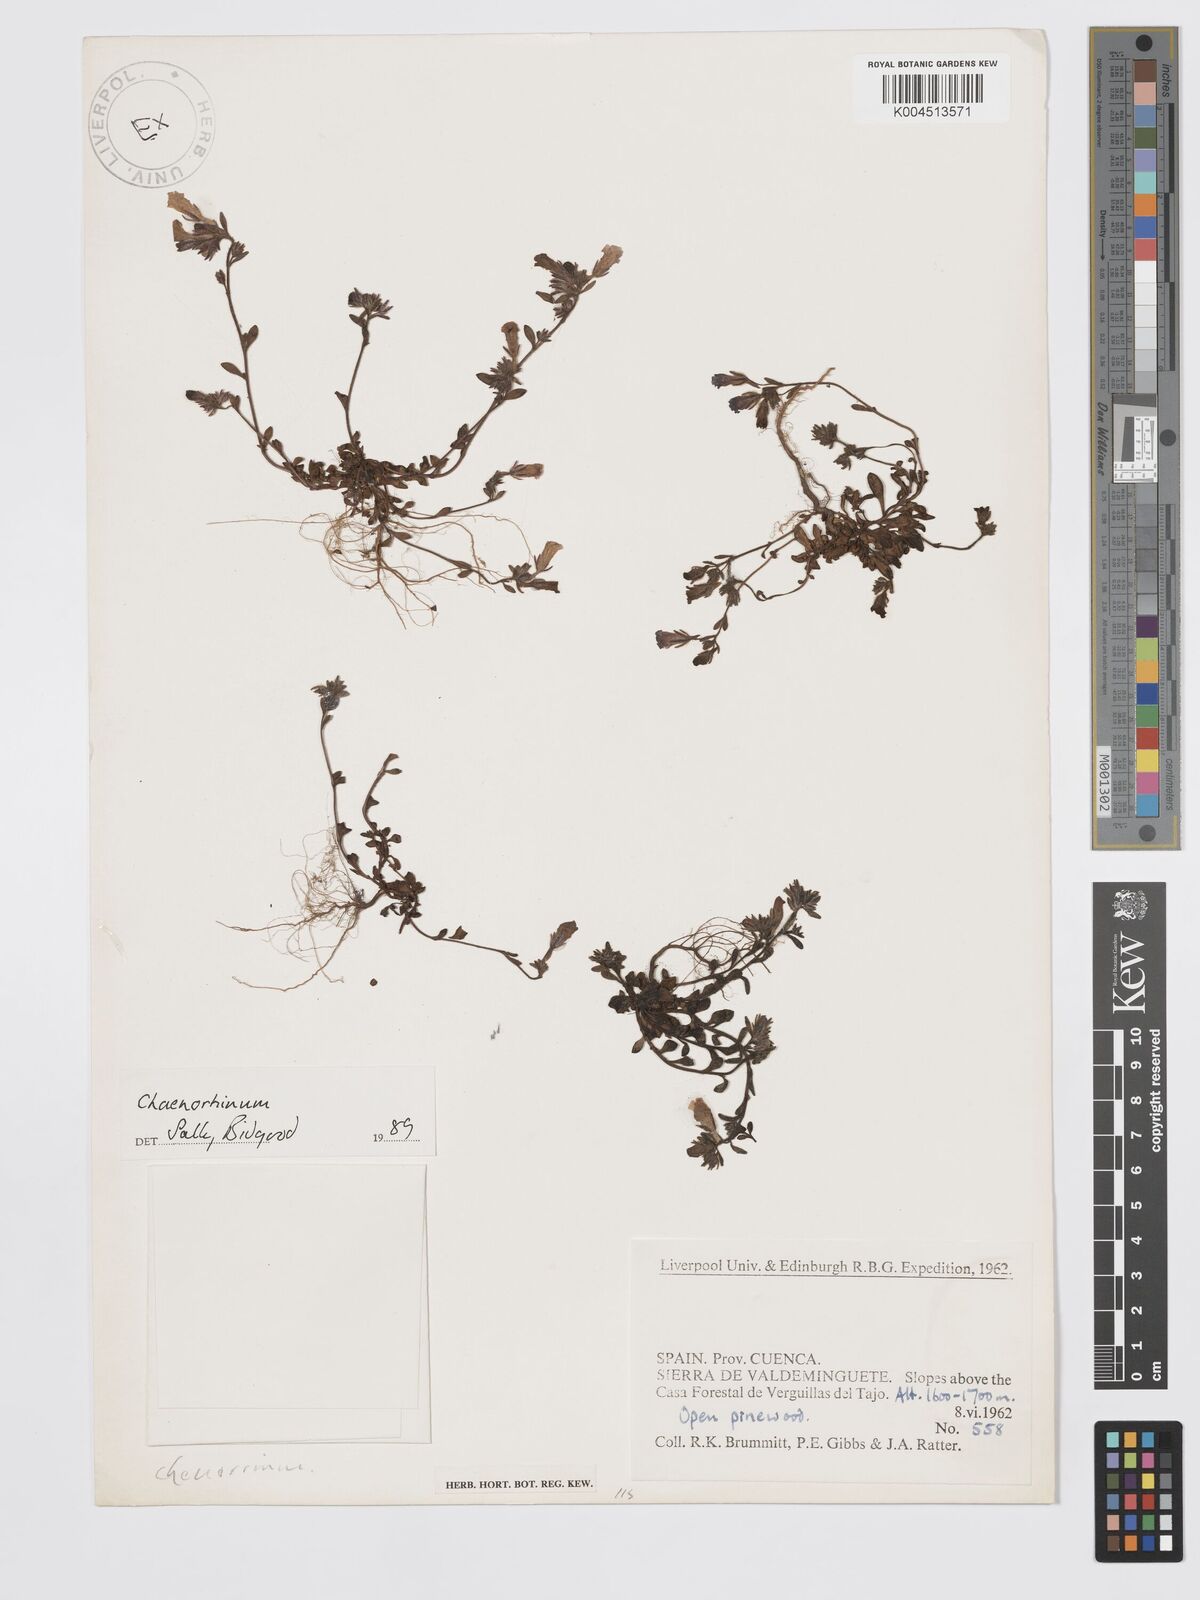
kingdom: Plantae
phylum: Tracheophyta
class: Magnoliopsida
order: Lamiales
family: Plantaginaceae
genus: Chaenorhinum
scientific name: Chaenorhinum minus
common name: Dwarf snapdragon
